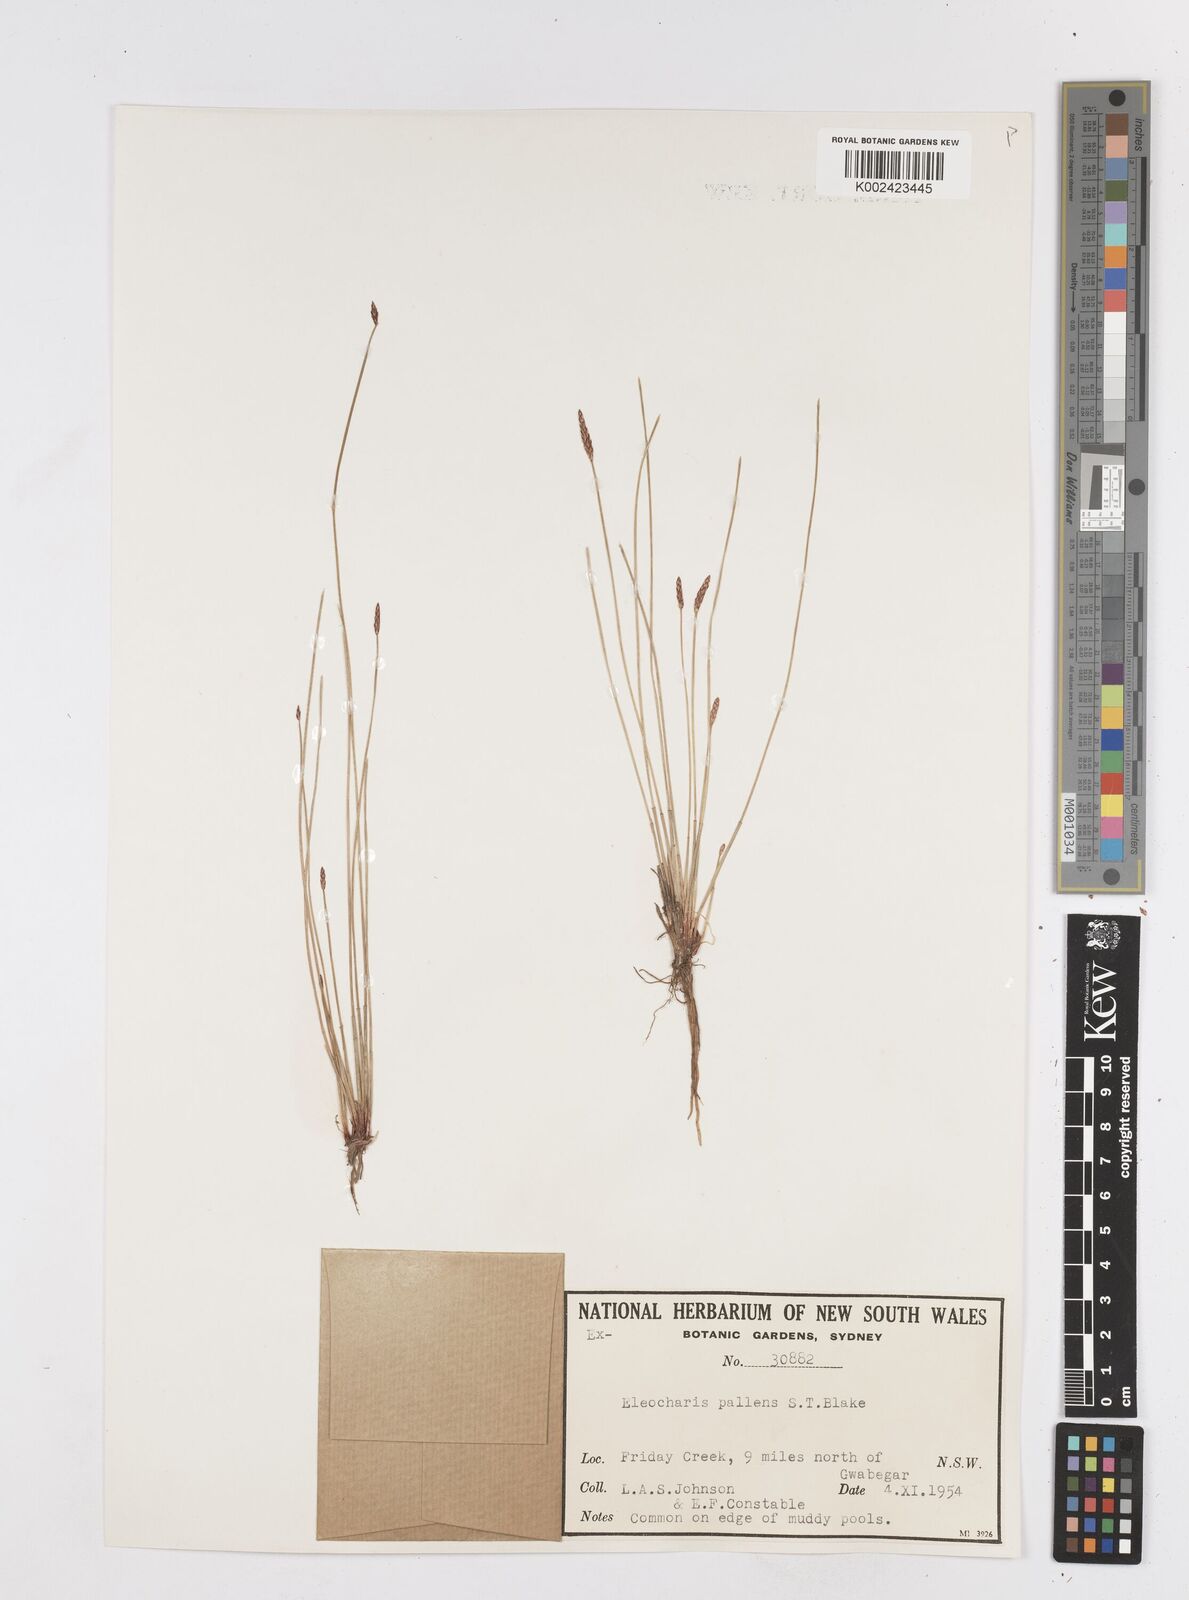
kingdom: Plantae
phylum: Tracheophyta
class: Liliopsida
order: Poales
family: Cyperaceae
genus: Eleocharis
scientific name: Eleocharis acuta
